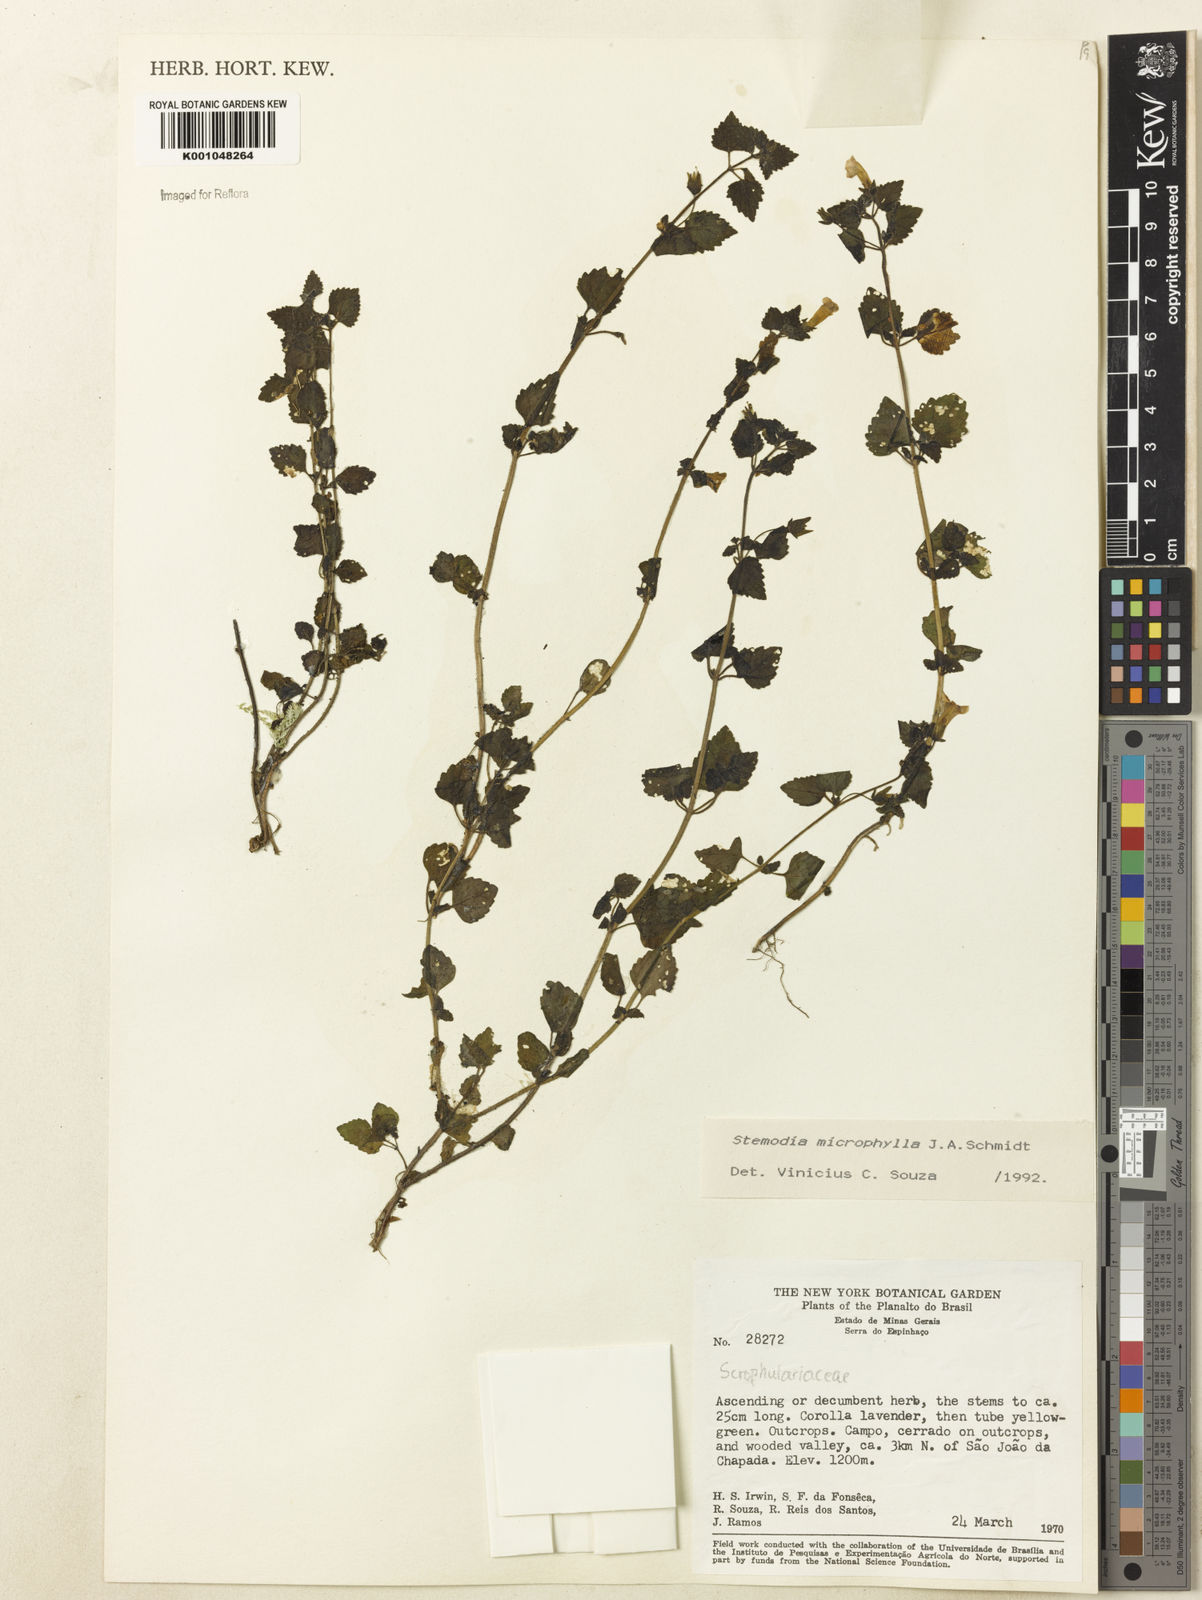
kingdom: Plantae
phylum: Tracheophyta
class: Magnoliopsida
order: Lamiales
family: Plantaginaceae
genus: Umbraria
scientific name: Umbraria microphylla
